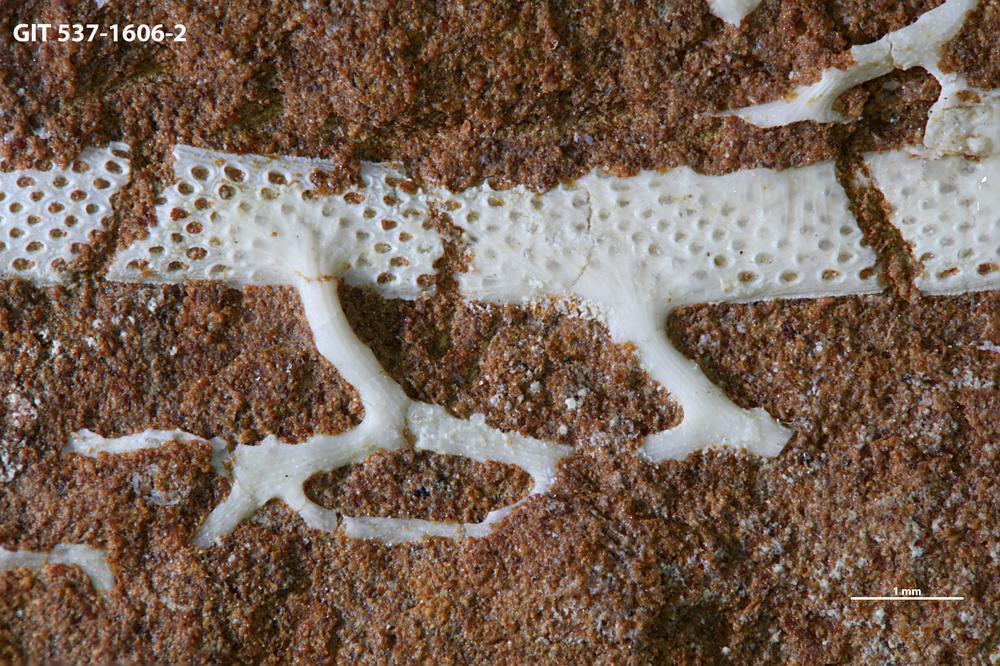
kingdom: Animalia
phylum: Bryozoa
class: Stenolaemata
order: Cryptostomida
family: Escharoporidae
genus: Graptodictya
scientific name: Graptodictya bonnemai
